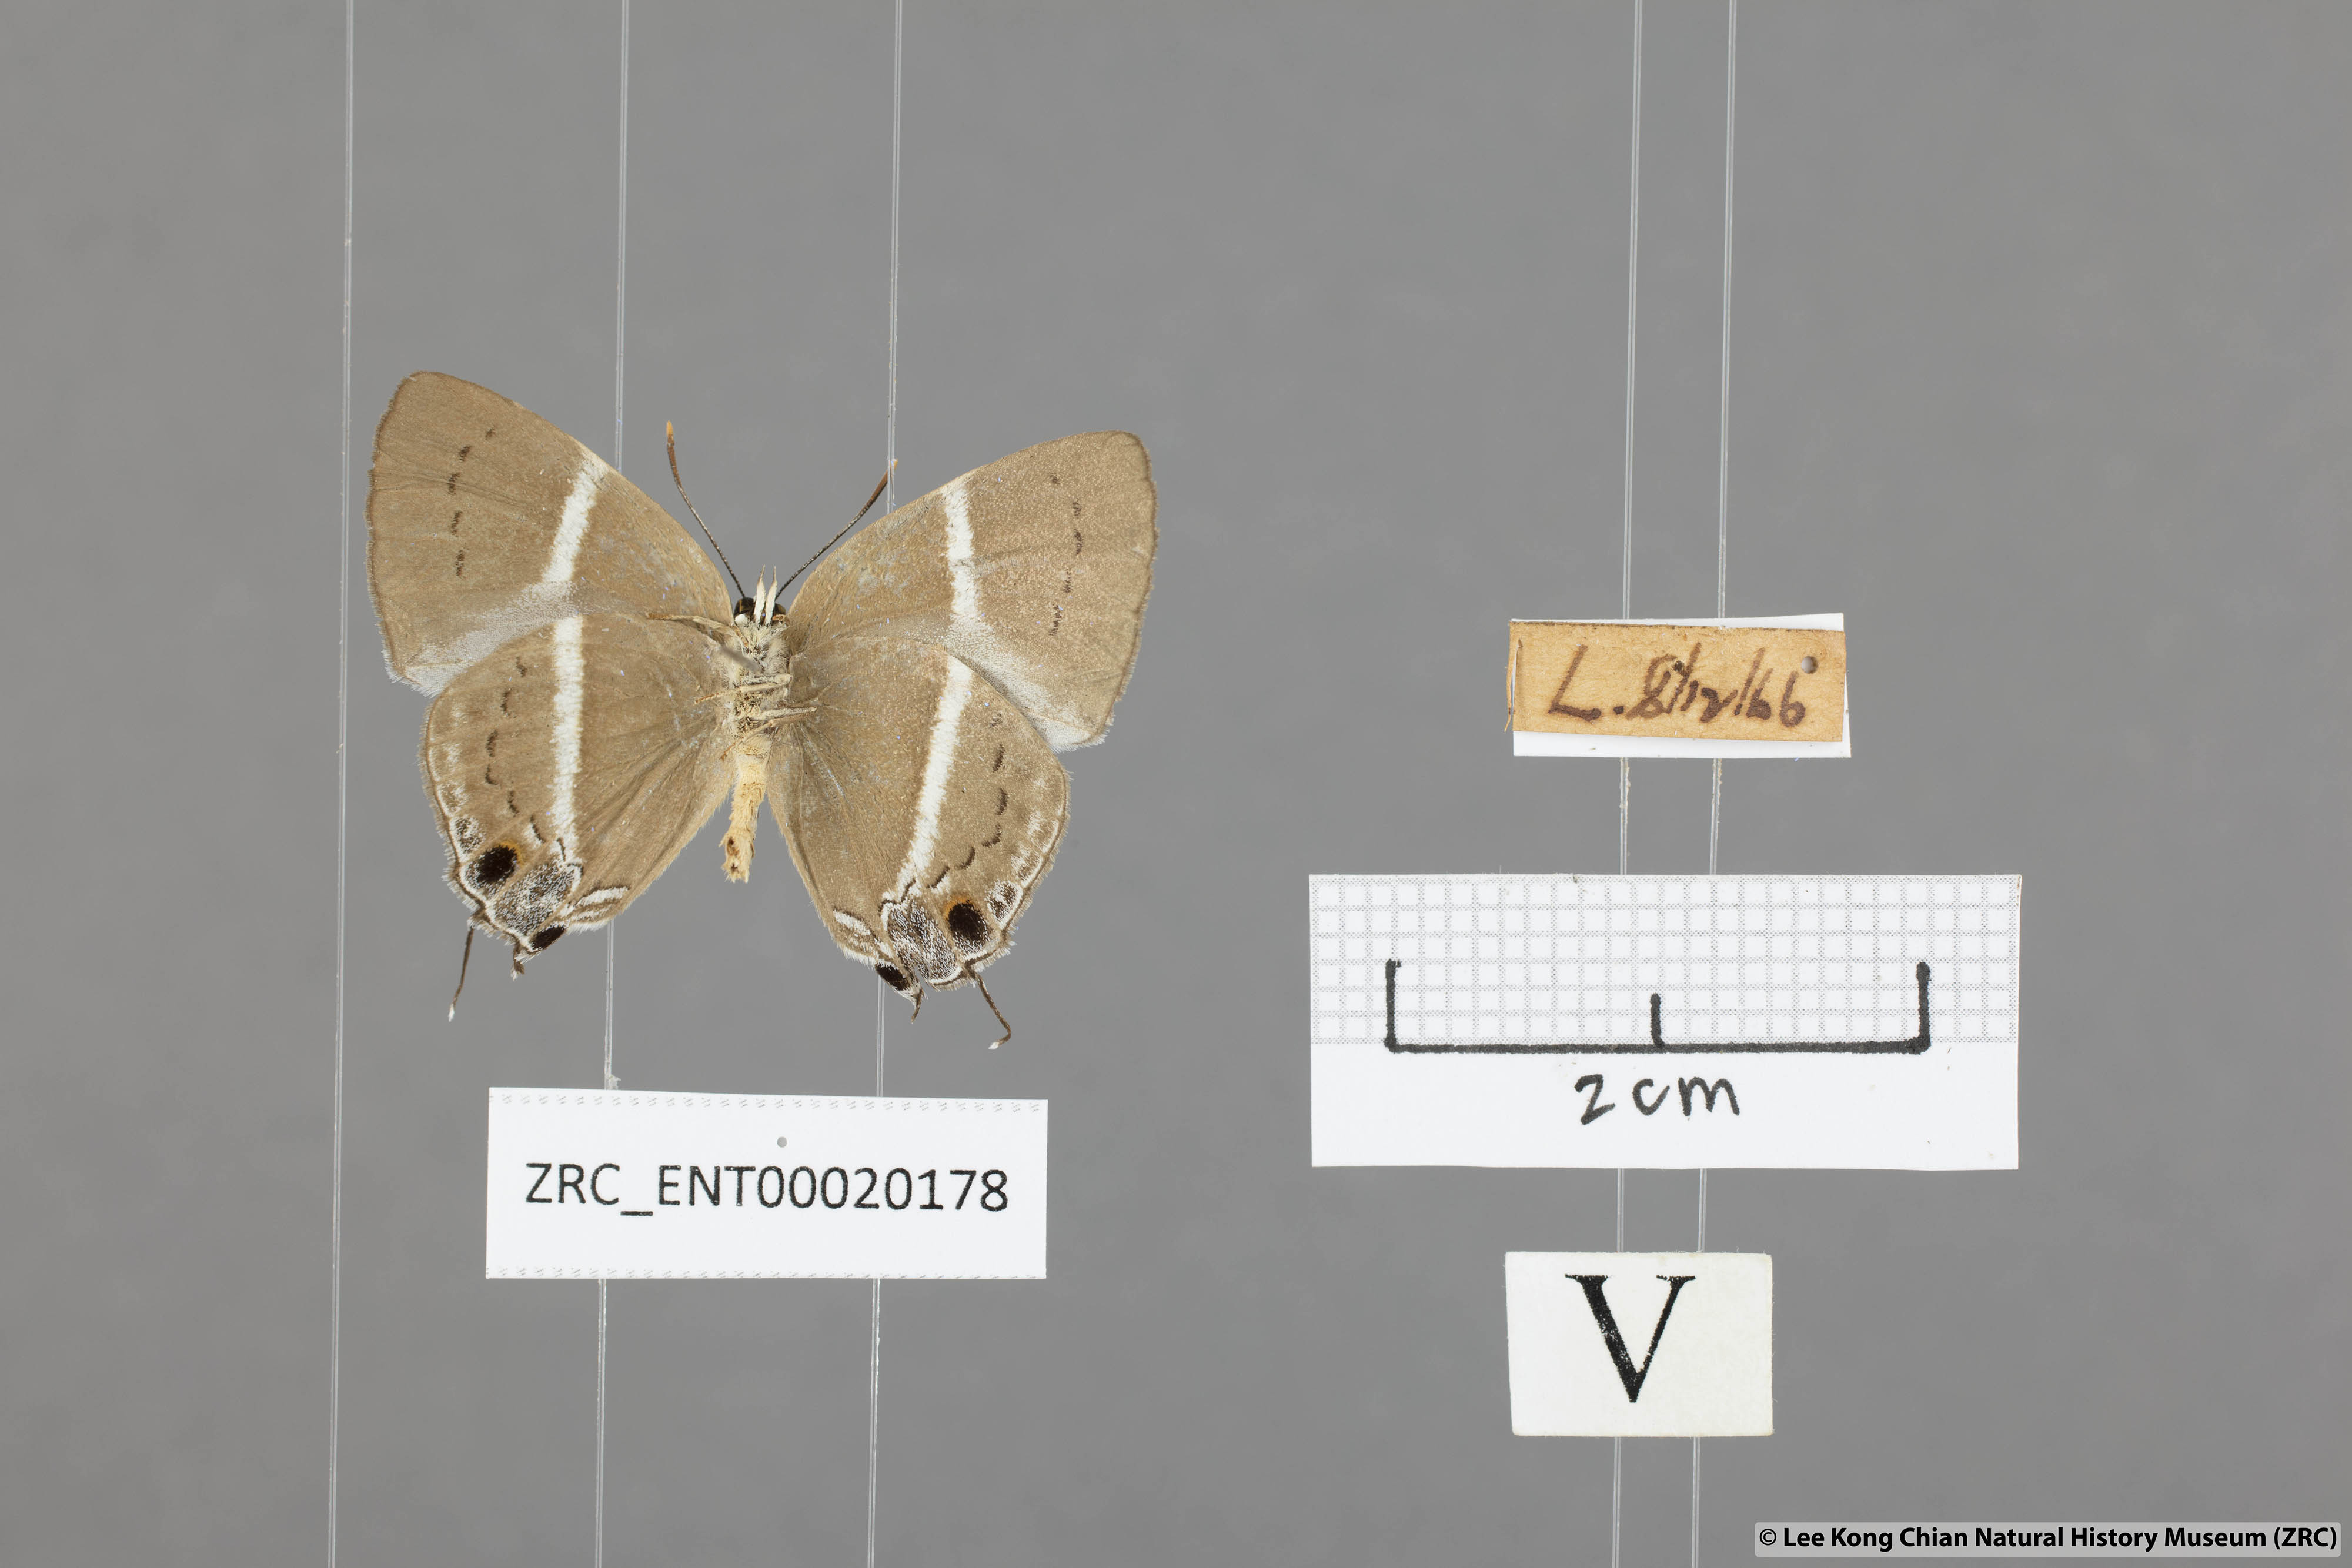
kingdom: Animalia
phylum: Arthropoda
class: Insecta
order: Lepidoptera
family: Lycaenidae
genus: Dacalana
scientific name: Dacalana vidura
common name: Medium-branded royal
